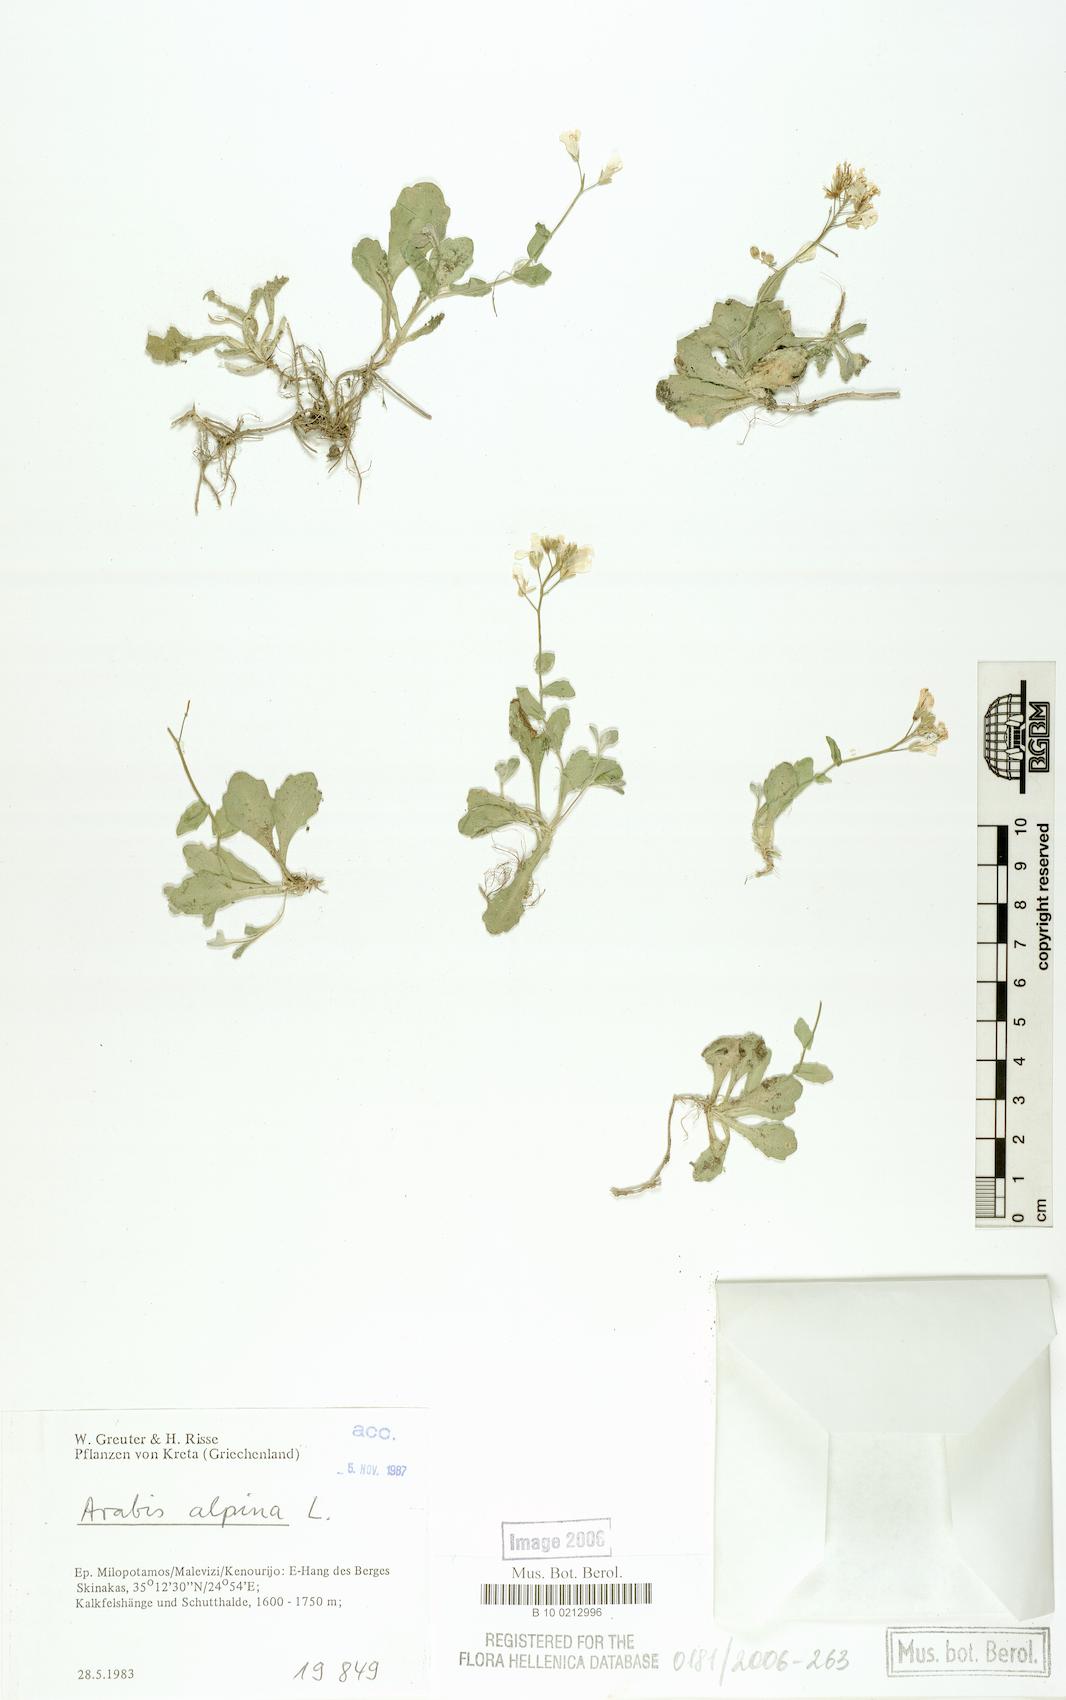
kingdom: Plantae
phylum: Tracheophyta
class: Magnoliopsida
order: Brassicales
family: Brassicaceae
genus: Arabis
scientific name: Arabis alpina
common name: Alpine rock-cress
